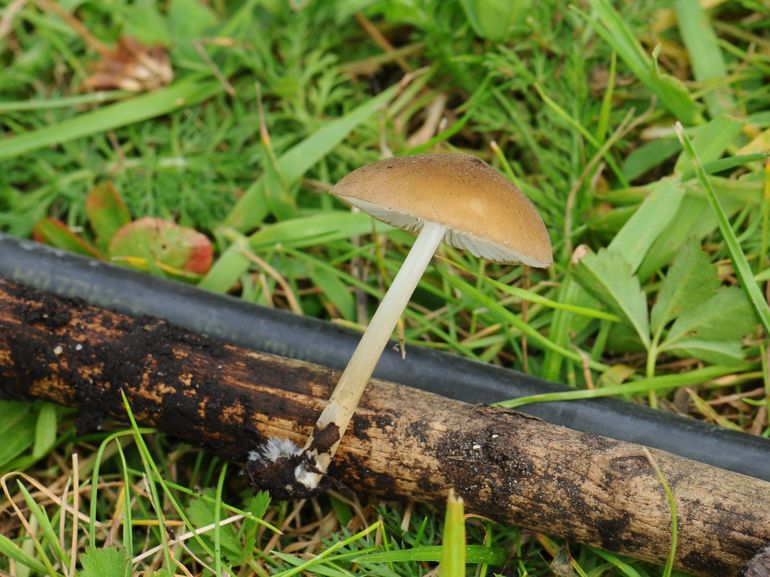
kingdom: Fungi
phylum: Basidiomycota
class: Agaricomycetes
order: Agaricales
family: Porotheleaceae
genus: Hydropodia
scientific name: Hydropodia subalpina
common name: vår-fnugfod
